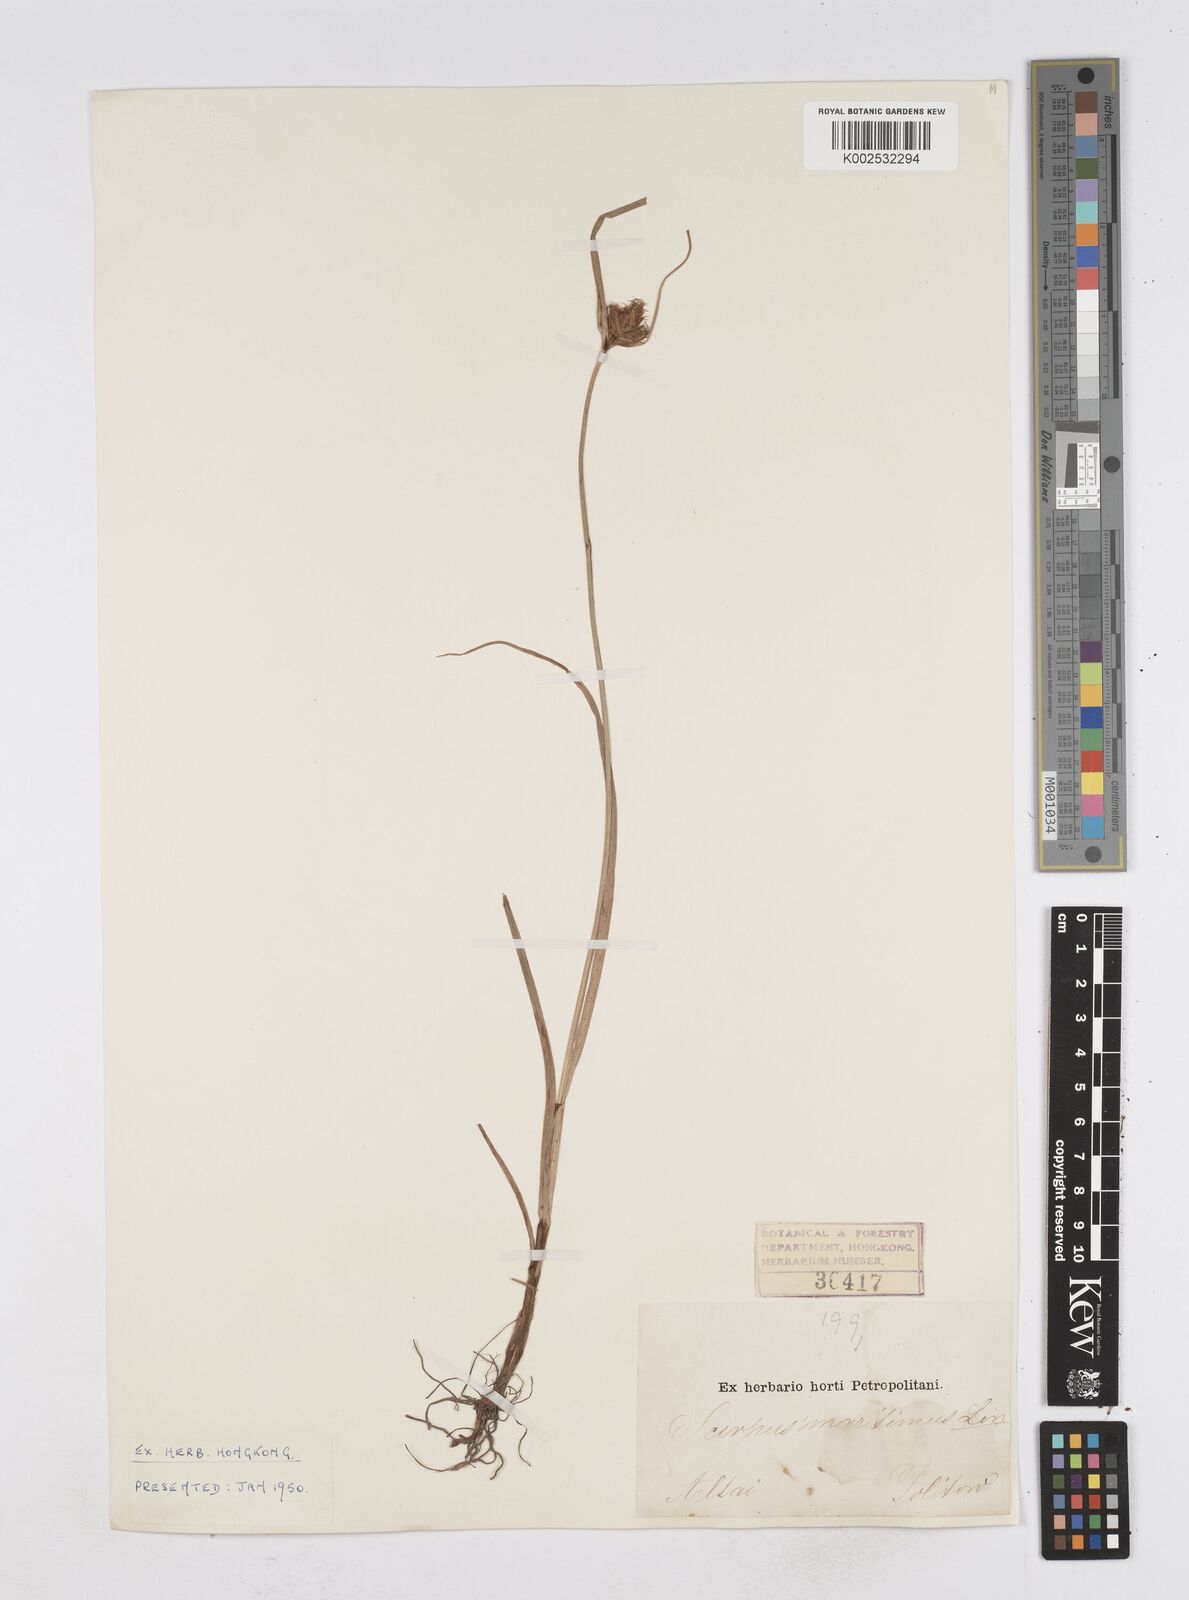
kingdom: Plantae
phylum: Tracheophyta
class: Liliopsida
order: Poales
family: Cyperaceae
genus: Bolboschoenus
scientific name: Bolboschoenus maritimus
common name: Sea club-rush
